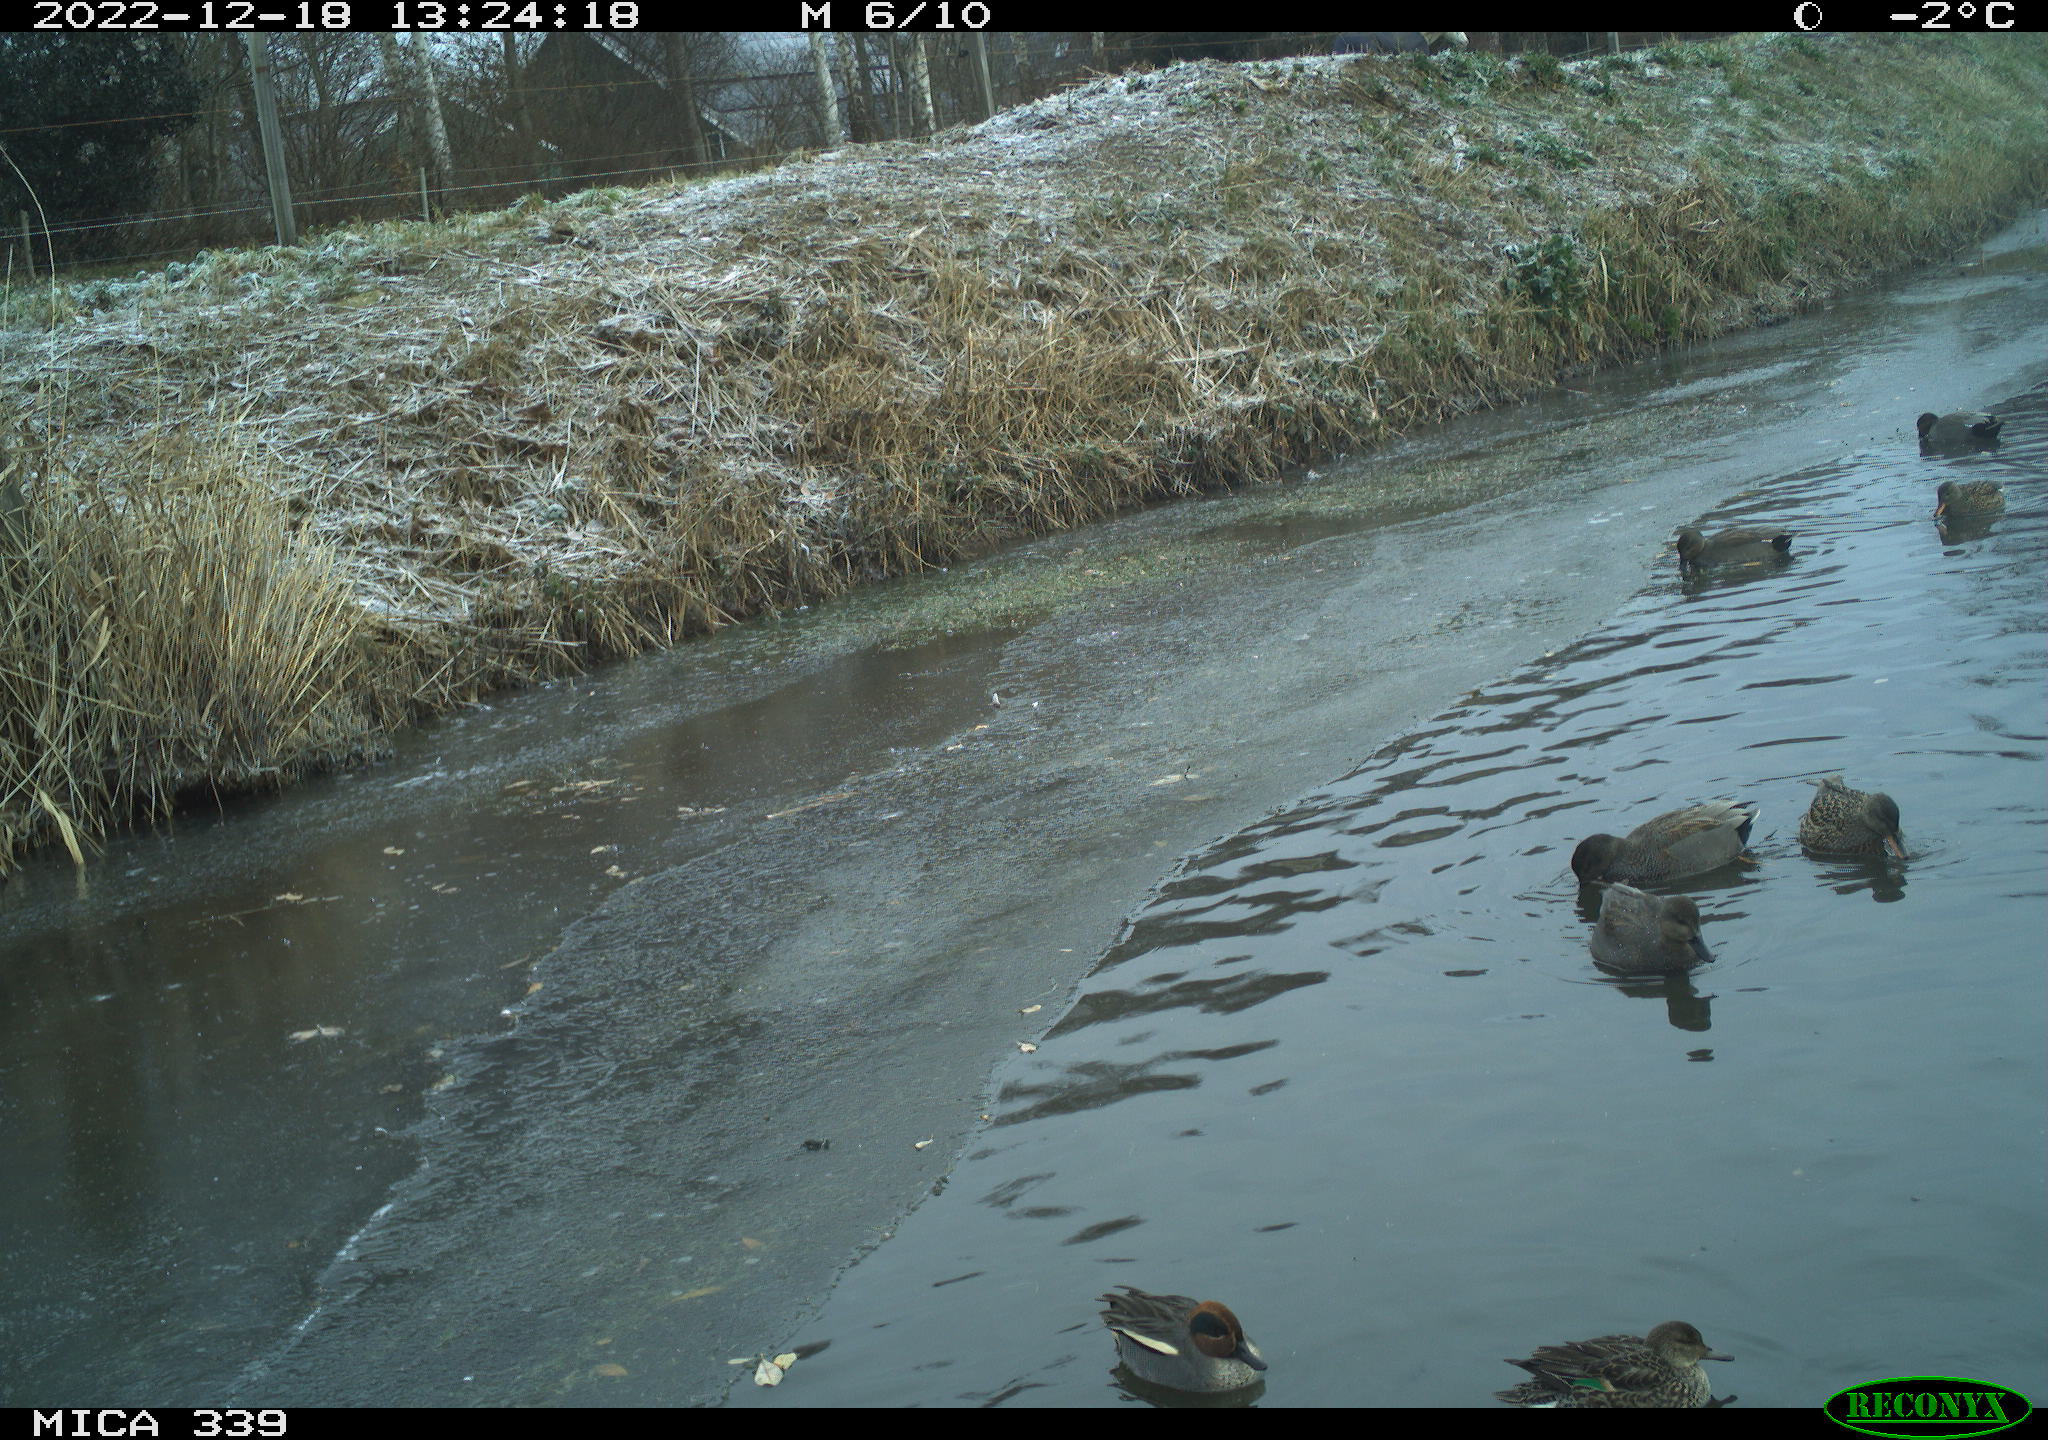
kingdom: Animalia
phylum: Chordata
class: Aves
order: Anseriformes
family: Anatidae
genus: Anas
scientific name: Anas
